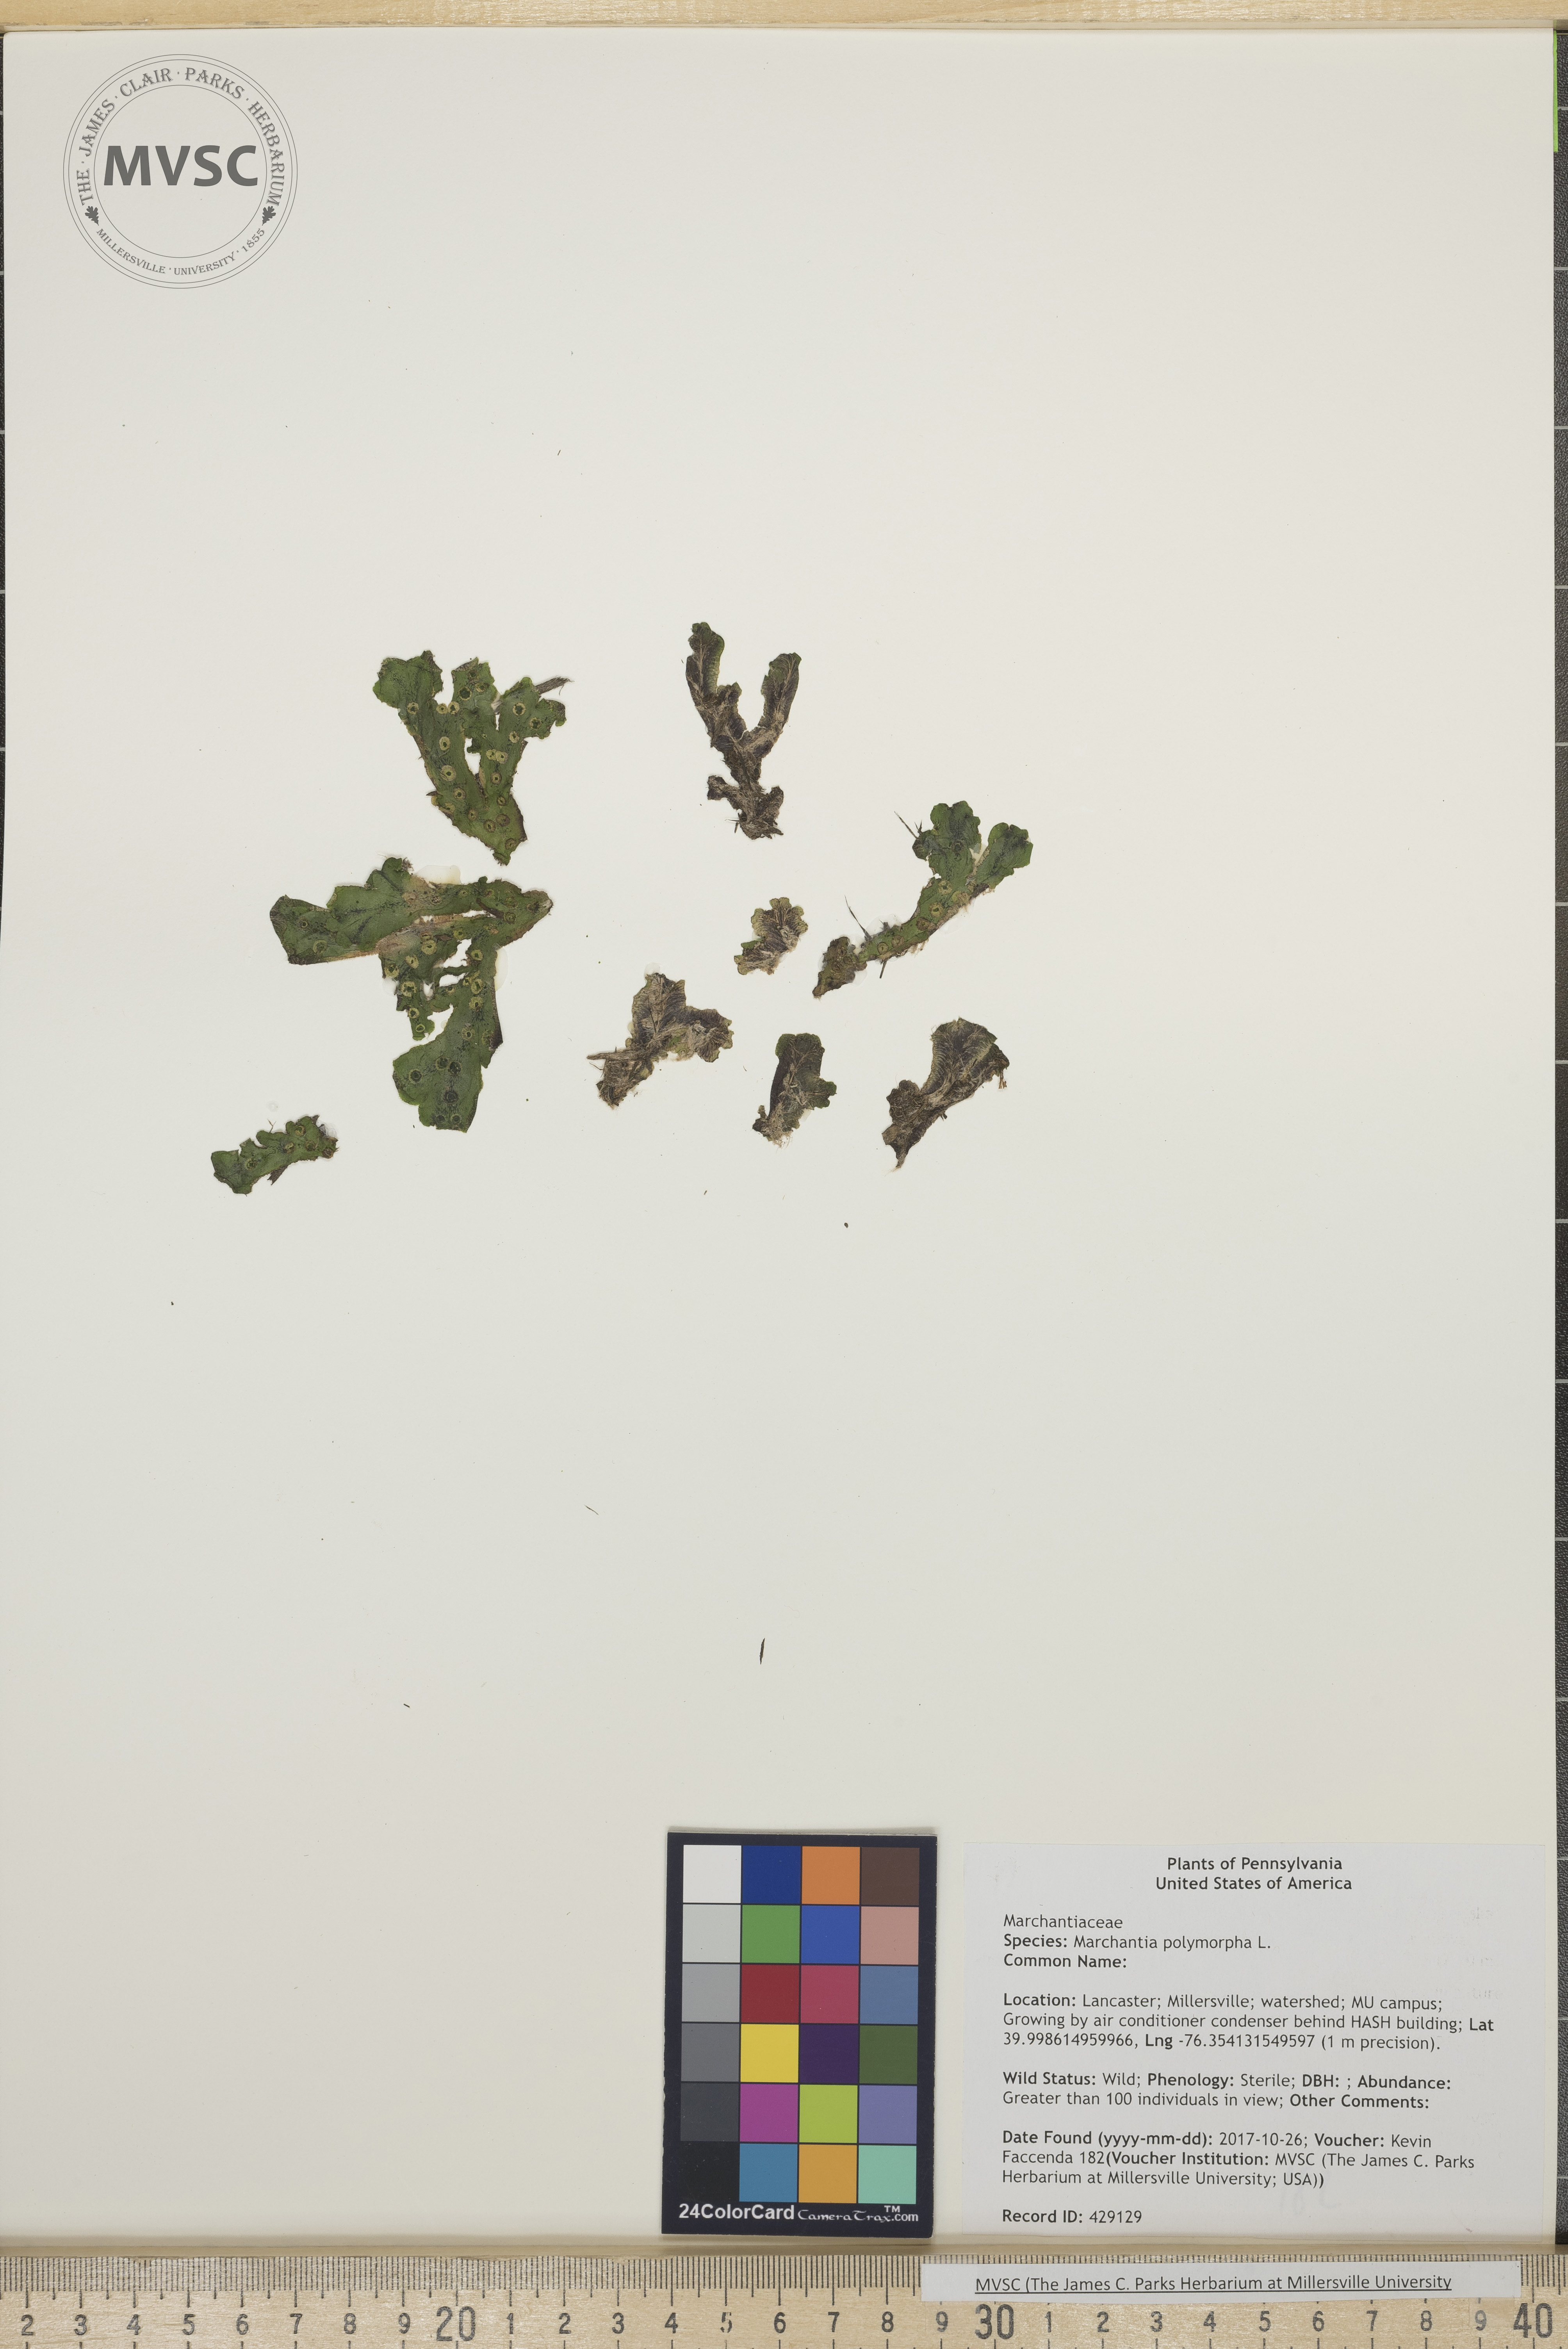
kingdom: Plantae
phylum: Marchantiophyta
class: Marchantiopsida
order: Marchantiales
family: Marchantiaceae
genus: Marchantia
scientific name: Marchantia polymorpha
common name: Common liverwort
